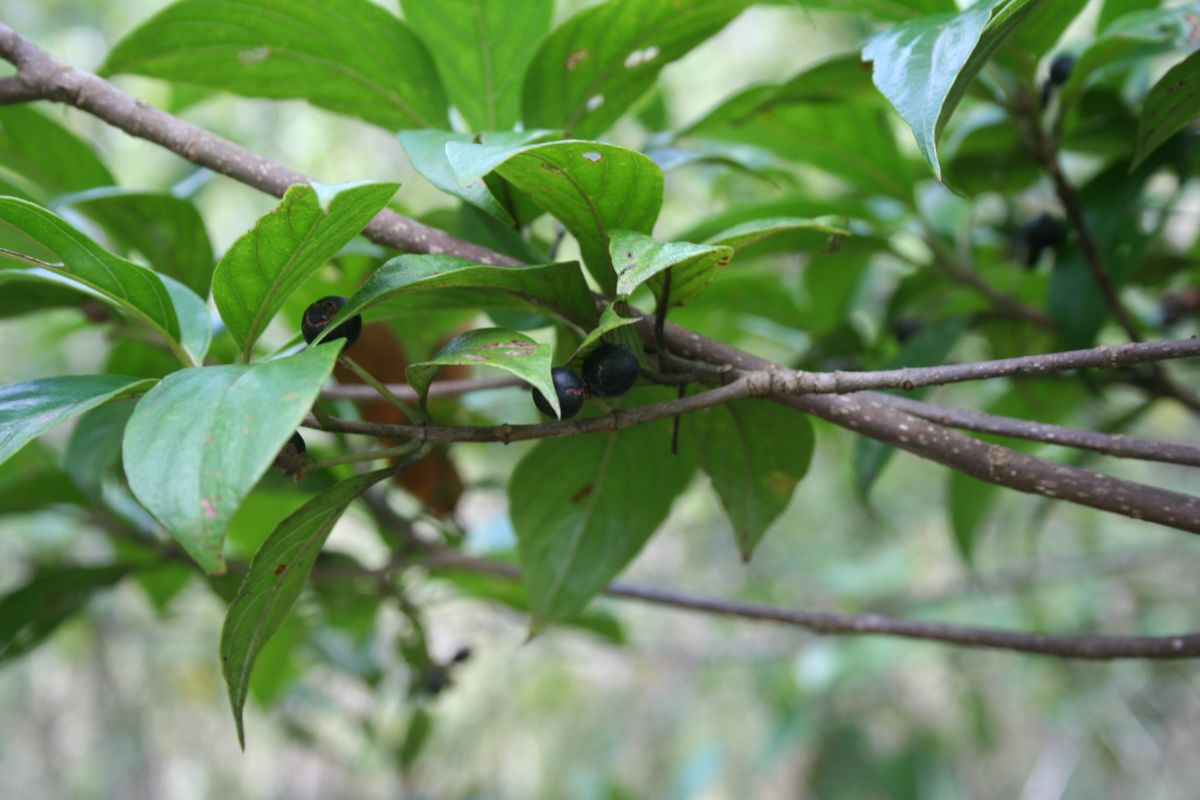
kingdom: Plantae
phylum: Tracheophyta
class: Magnoliopsida
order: Gentianales
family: Rubiaceae
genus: Pittoniotis
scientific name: Pittoniotis protracta
